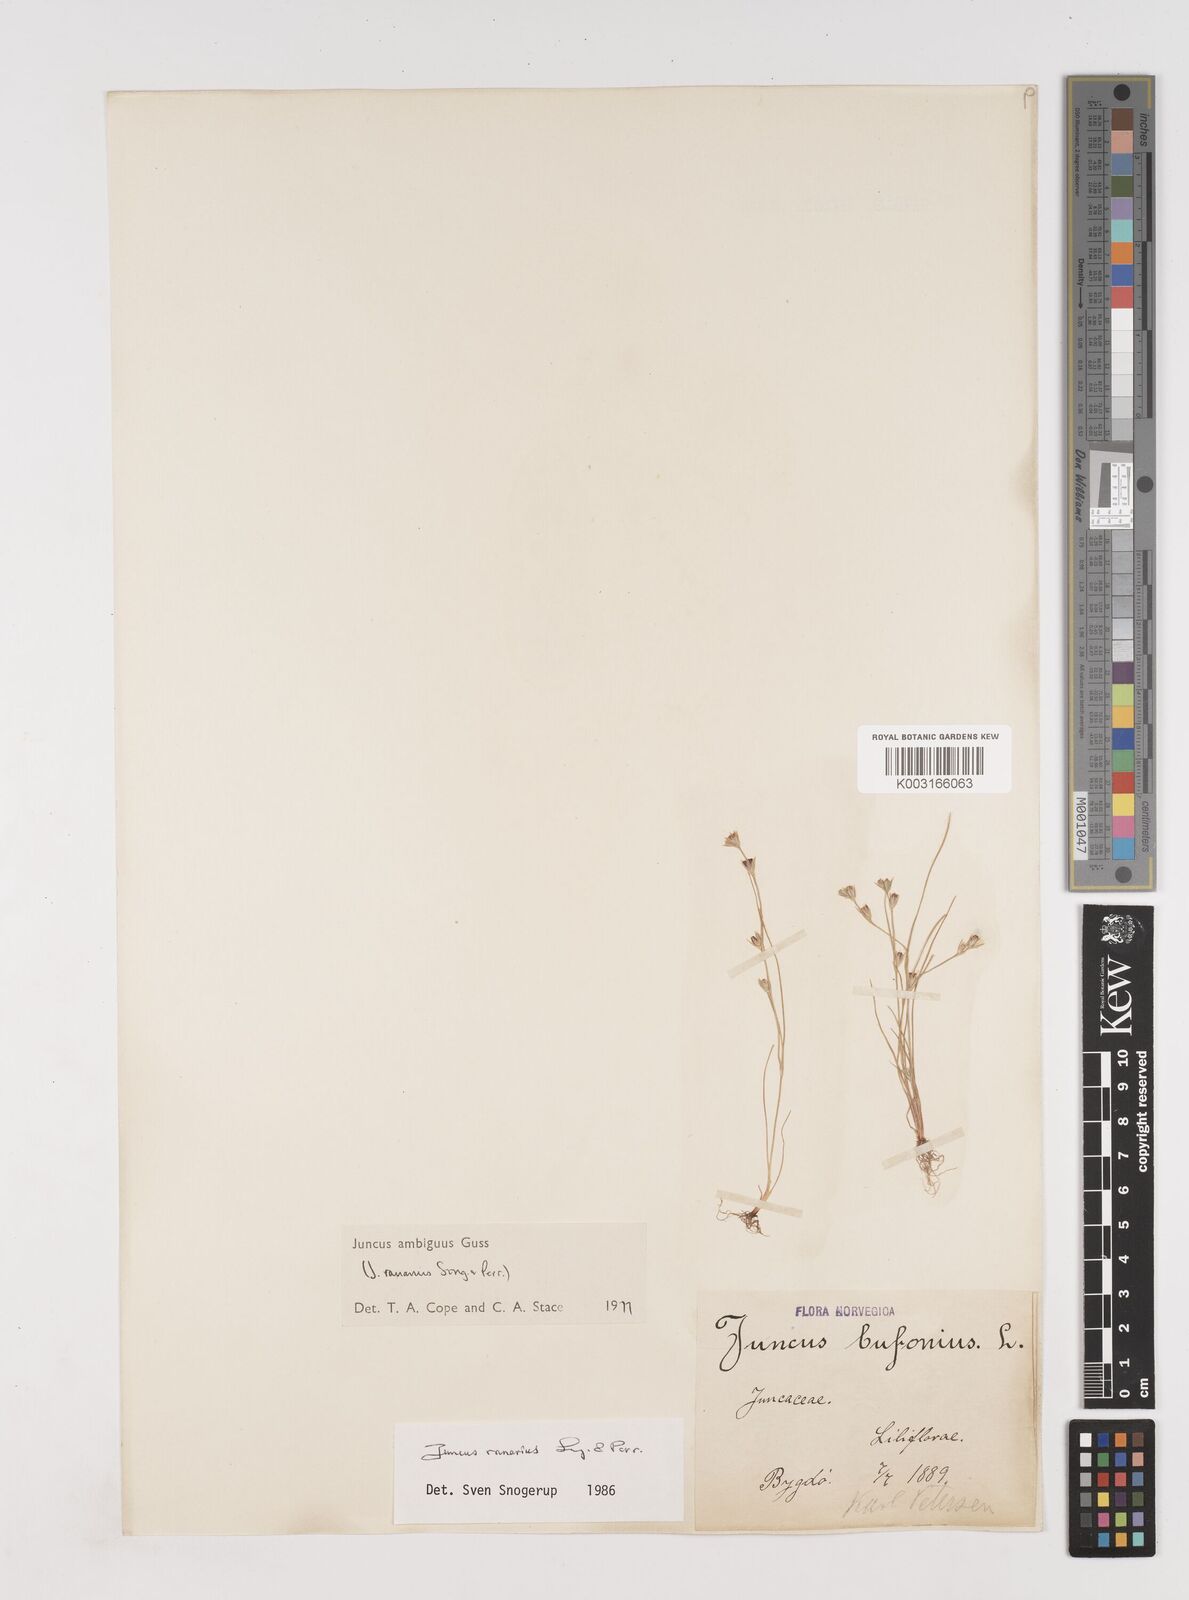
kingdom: Plantae
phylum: Tracheophyta
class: Liliopsida
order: Poales
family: Juncaceae
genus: Juncus
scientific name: Juncus hybridus
